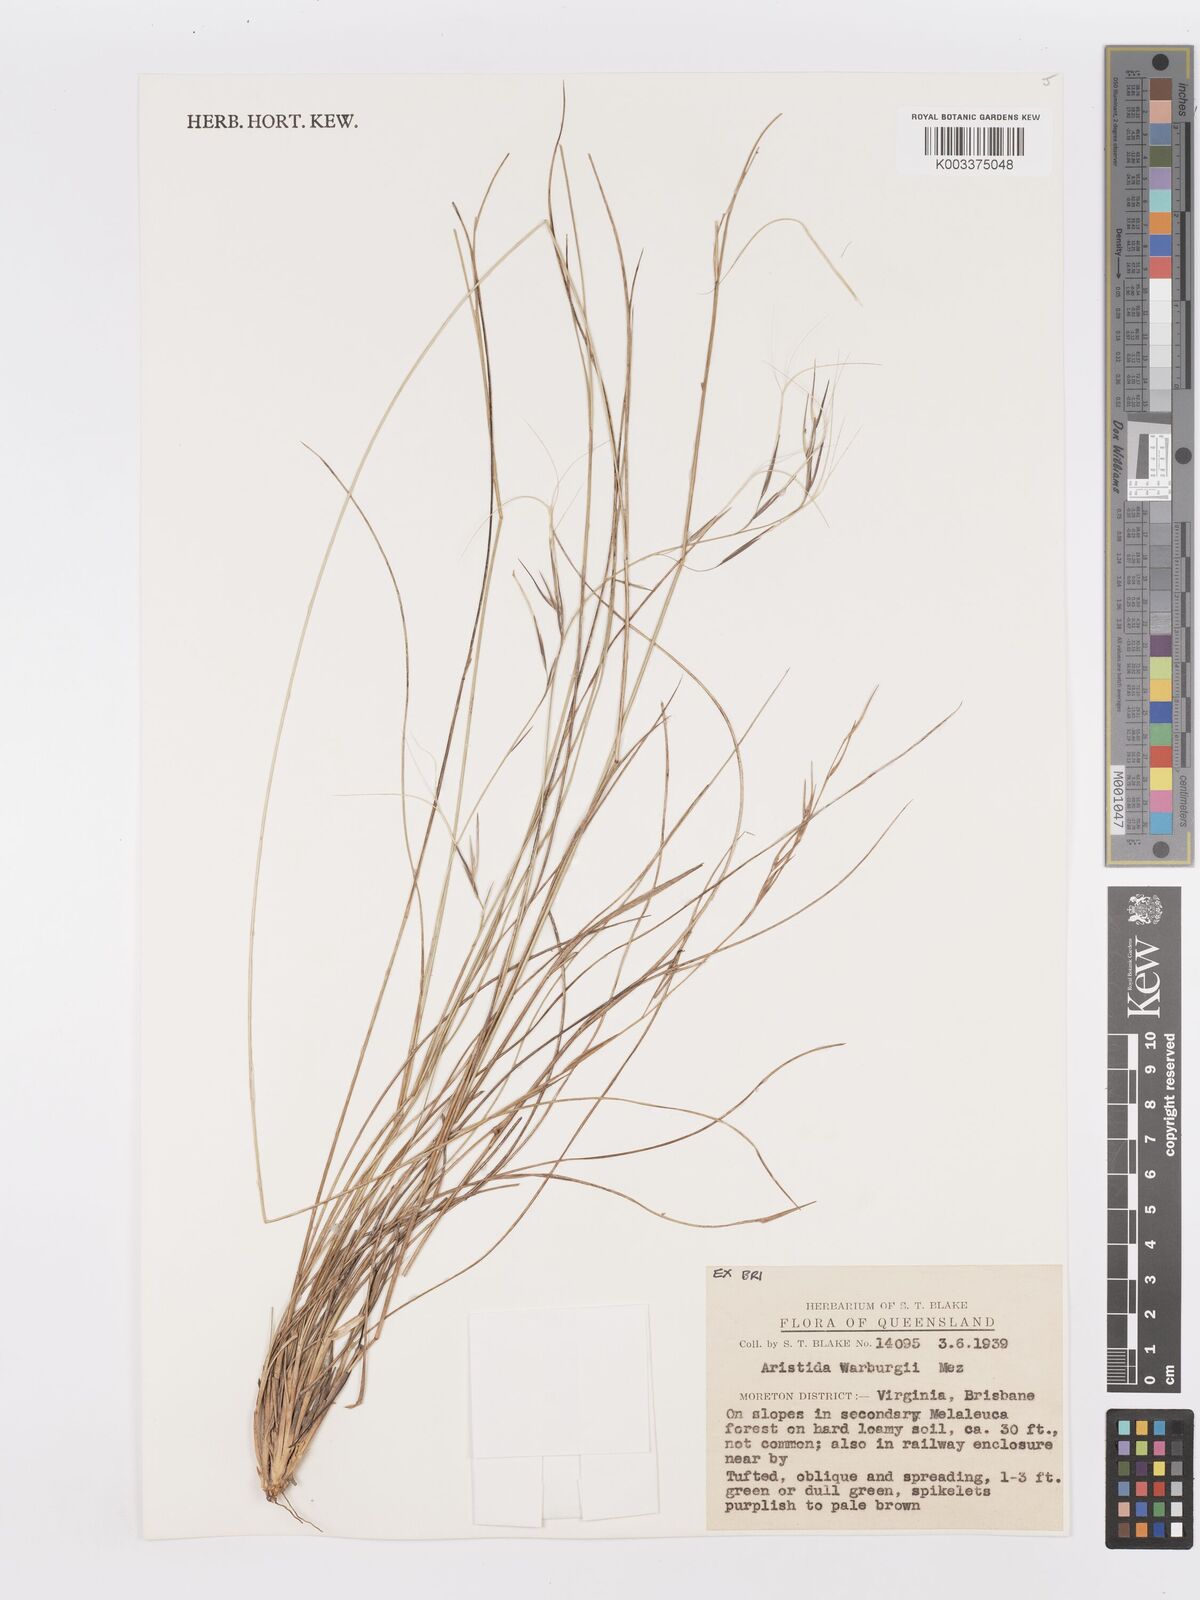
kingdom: Plantae
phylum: Tracheophyta
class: Liliopsida
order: Poales
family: Poaceae
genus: Aristida
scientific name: Aristida warburgii
